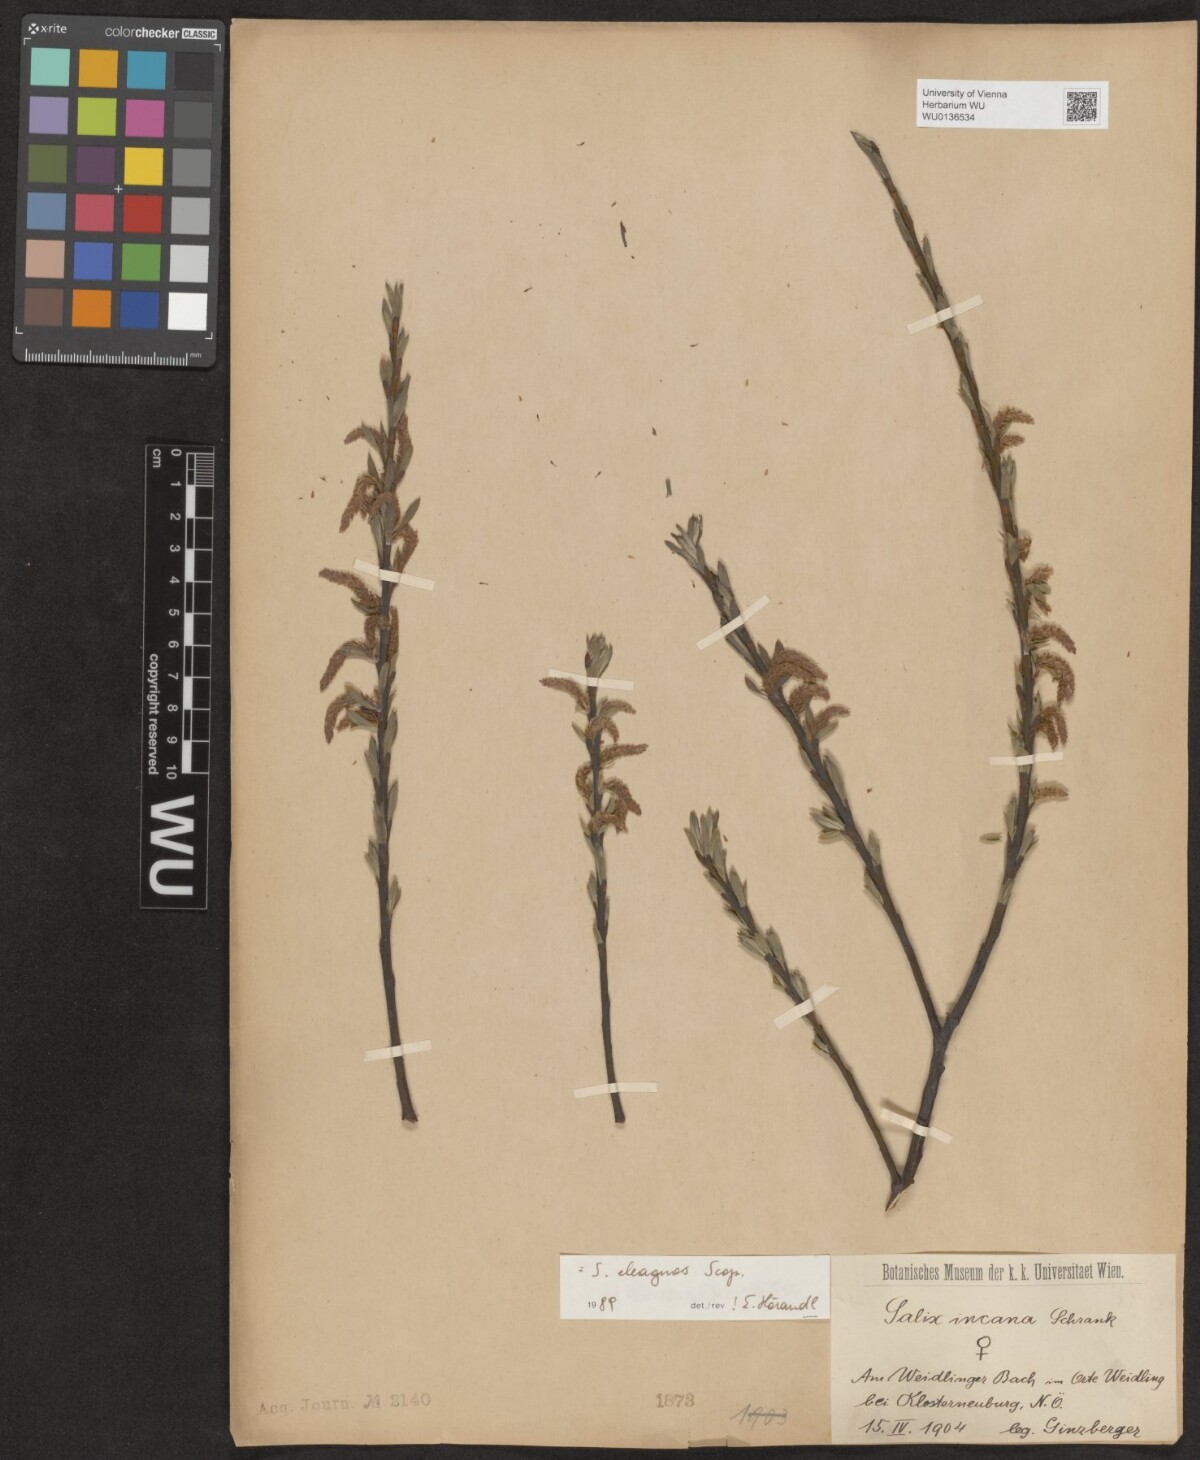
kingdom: Plantae
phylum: Tracheophyta
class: Magnoliopsida
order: Malpighiales
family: Salicaceae
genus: Salix
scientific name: Salix eleagnos
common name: Elaeagnus willow
